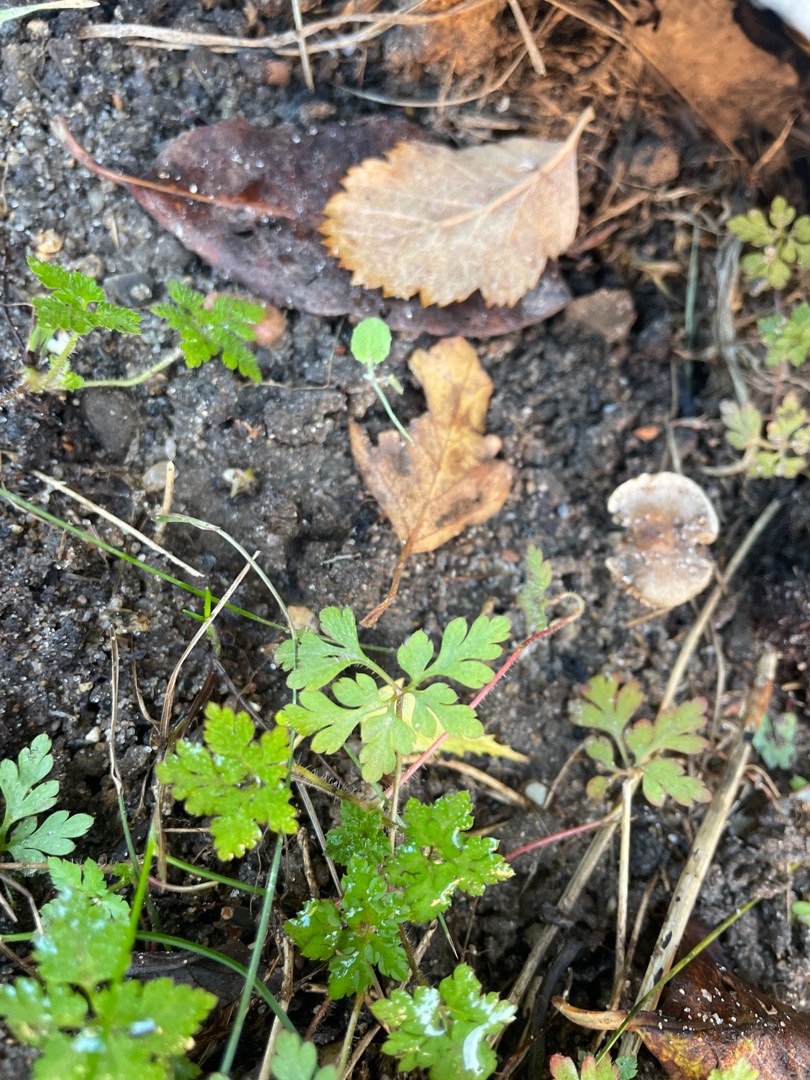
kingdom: Plantae
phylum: Tracheophyta
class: Magnoliopsida
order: Geraniales
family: Geraniaceae
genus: Geranium
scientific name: Geranium robertianum
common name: Stinkende storkenæb
